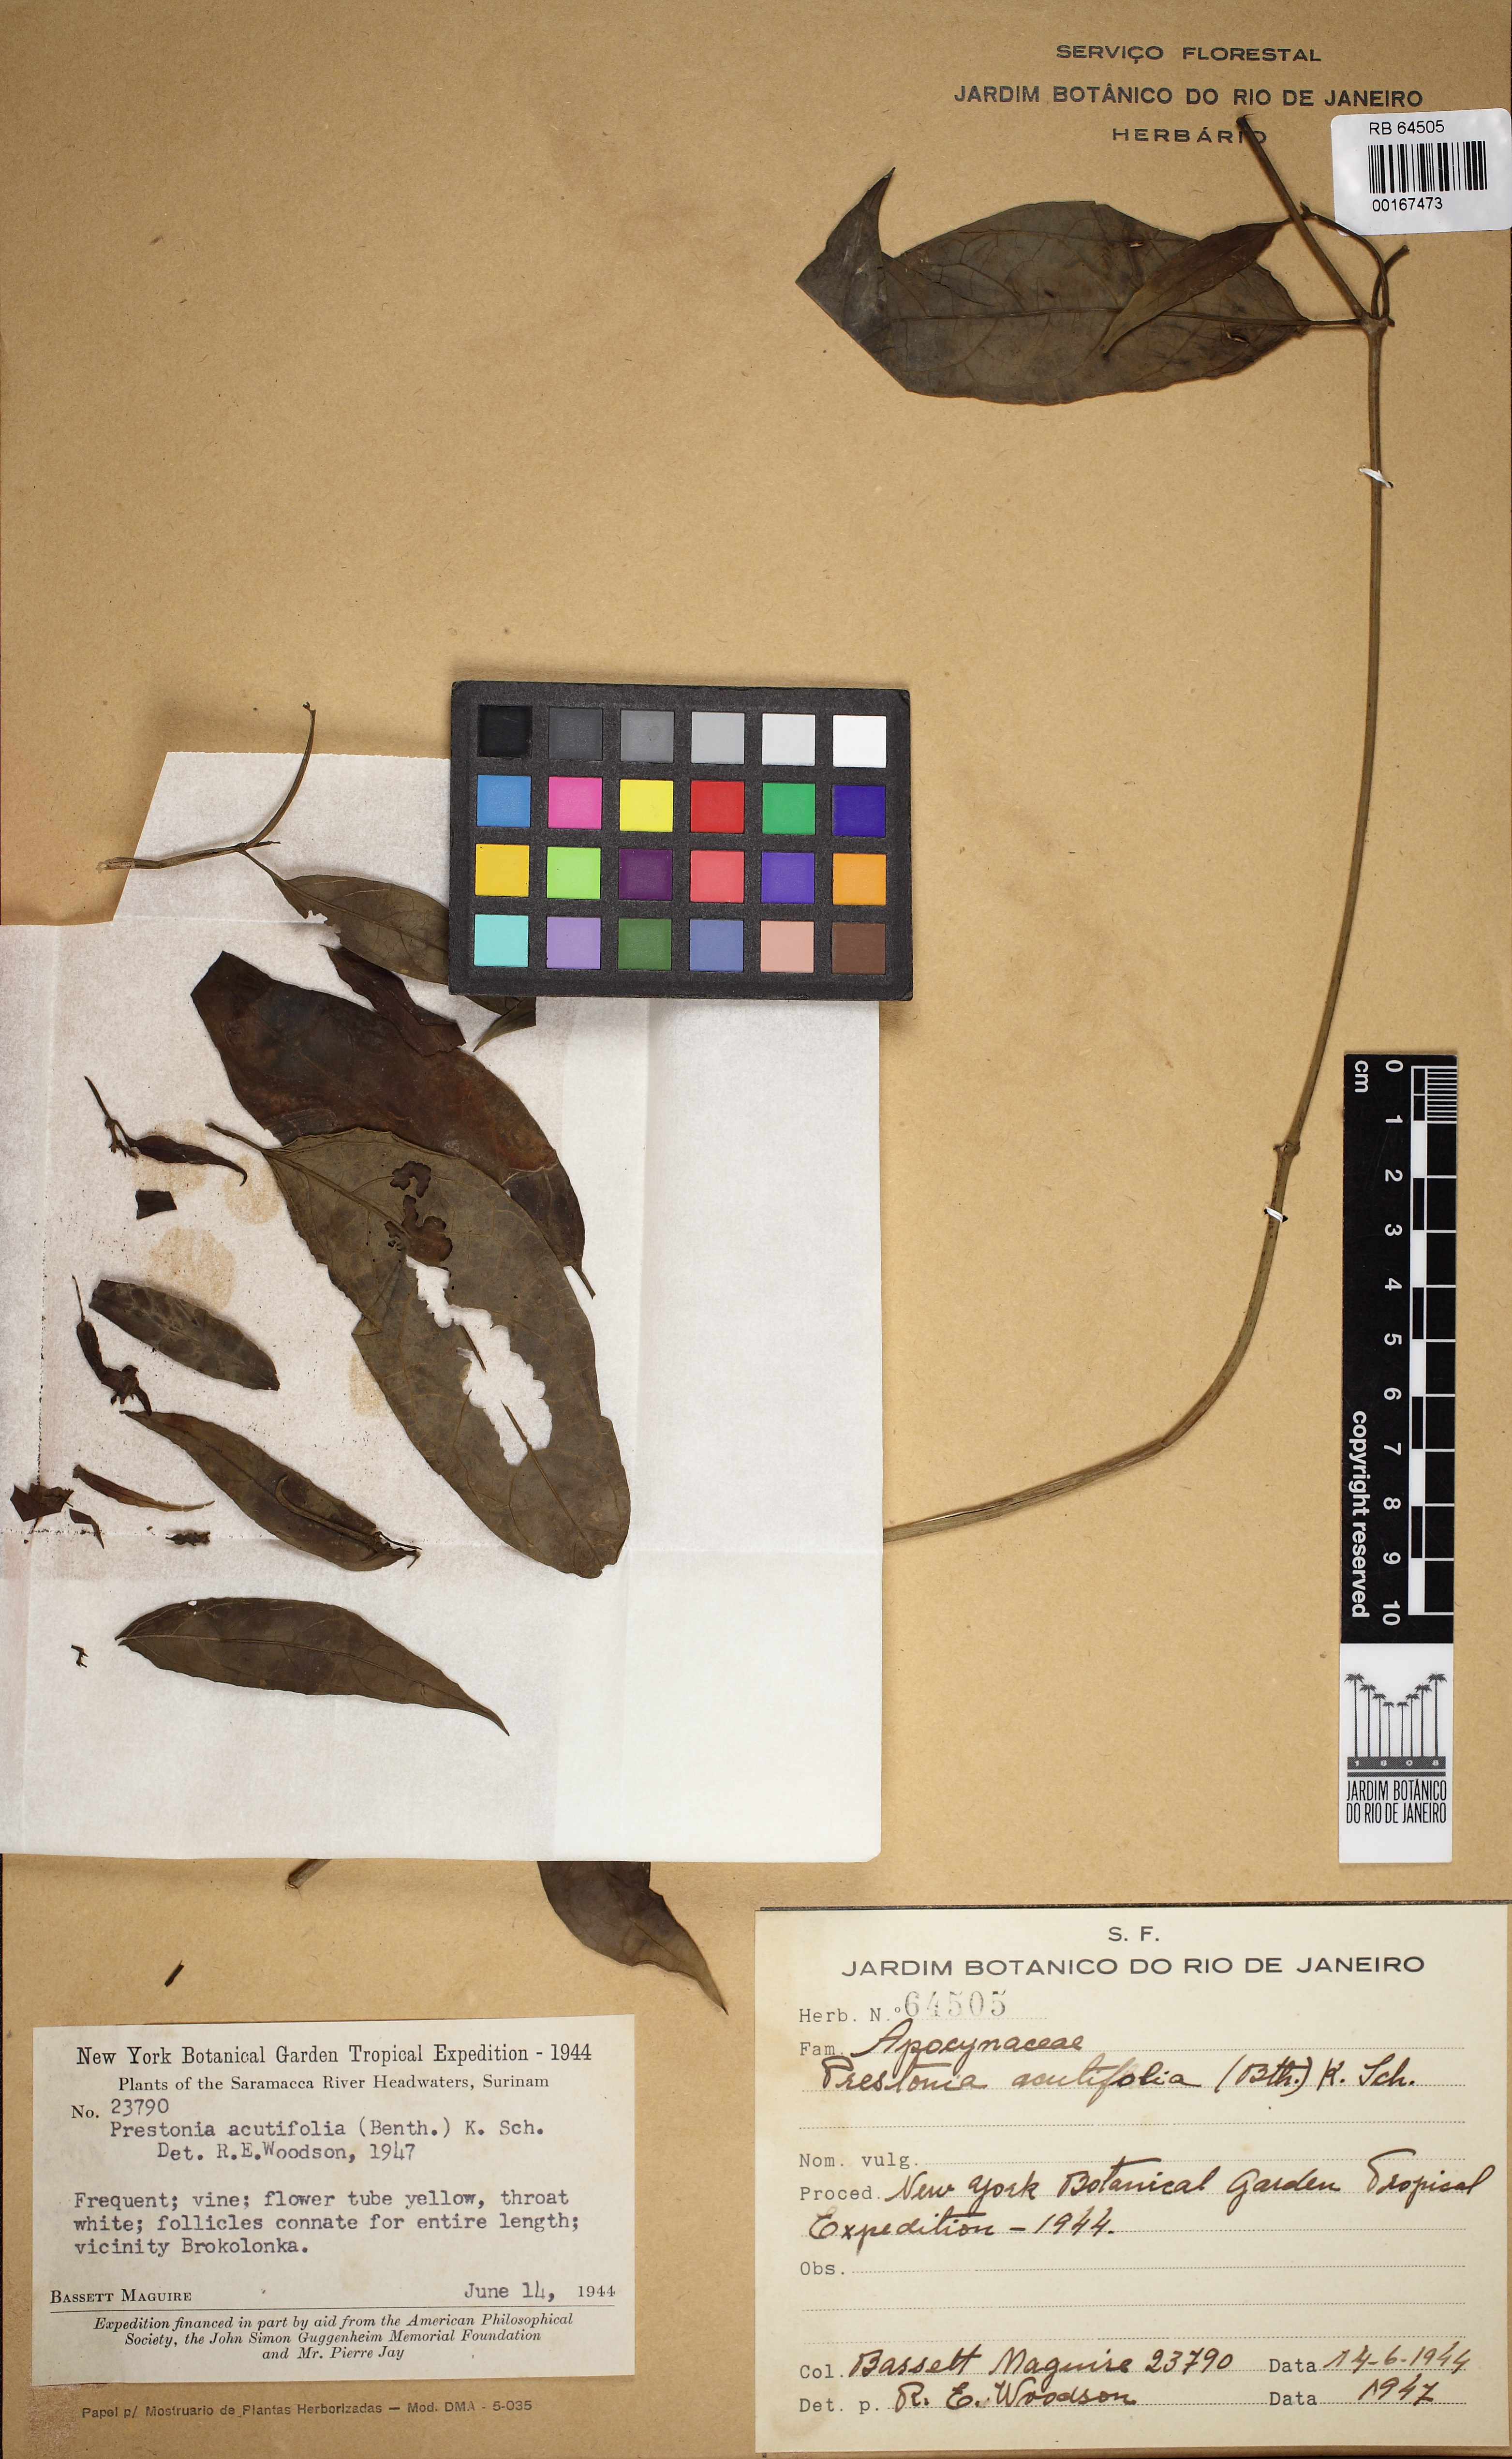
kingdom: Plantae
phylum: Tracheophyta
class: Magnoliopsida
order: Gentianales
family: Apocynaceae
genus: Prestonia
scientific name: Prestonia quinquangularis
